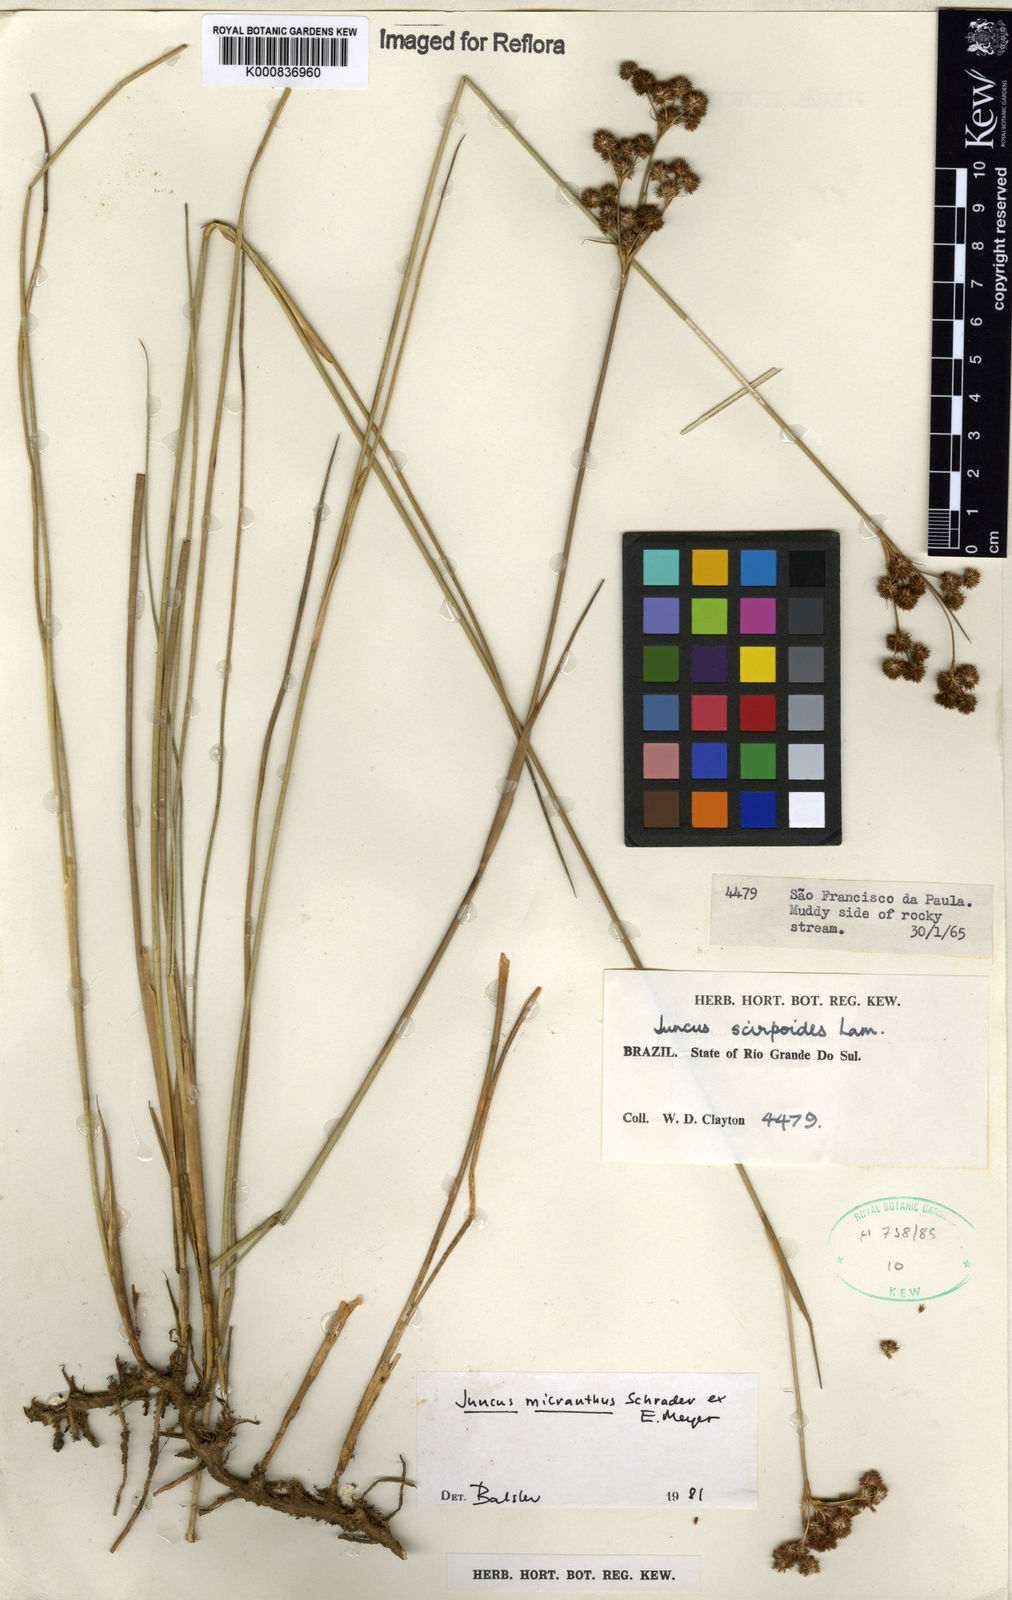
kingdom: Plantae
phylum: Tracheophyta
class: Liliopsida
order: Poales
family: Juncaceae
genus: Juncus
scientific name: Juncus
